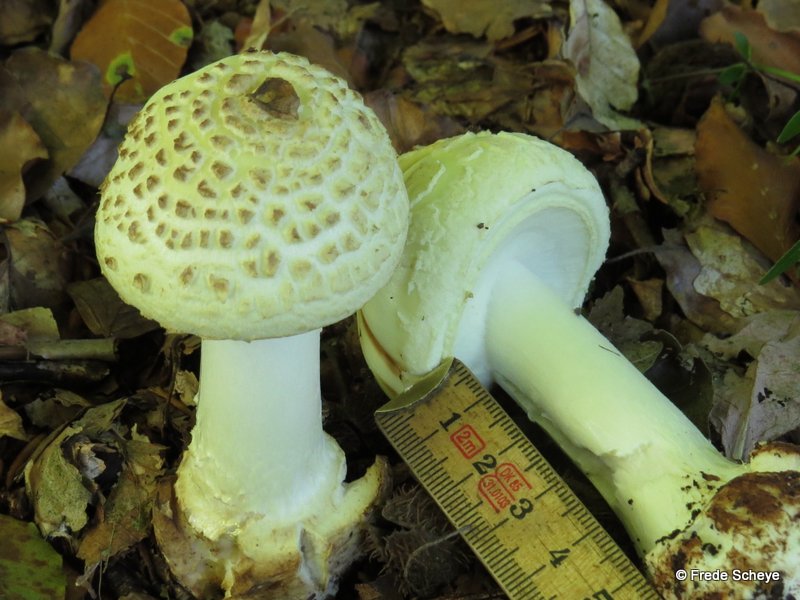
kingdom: Fungi
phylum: Basidiomycota
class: Agaricomycetes
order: Agaricales
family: Amanitaceae
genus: Amanita
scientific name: Amanita citrina
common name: kugleknoldet fluesvamp
